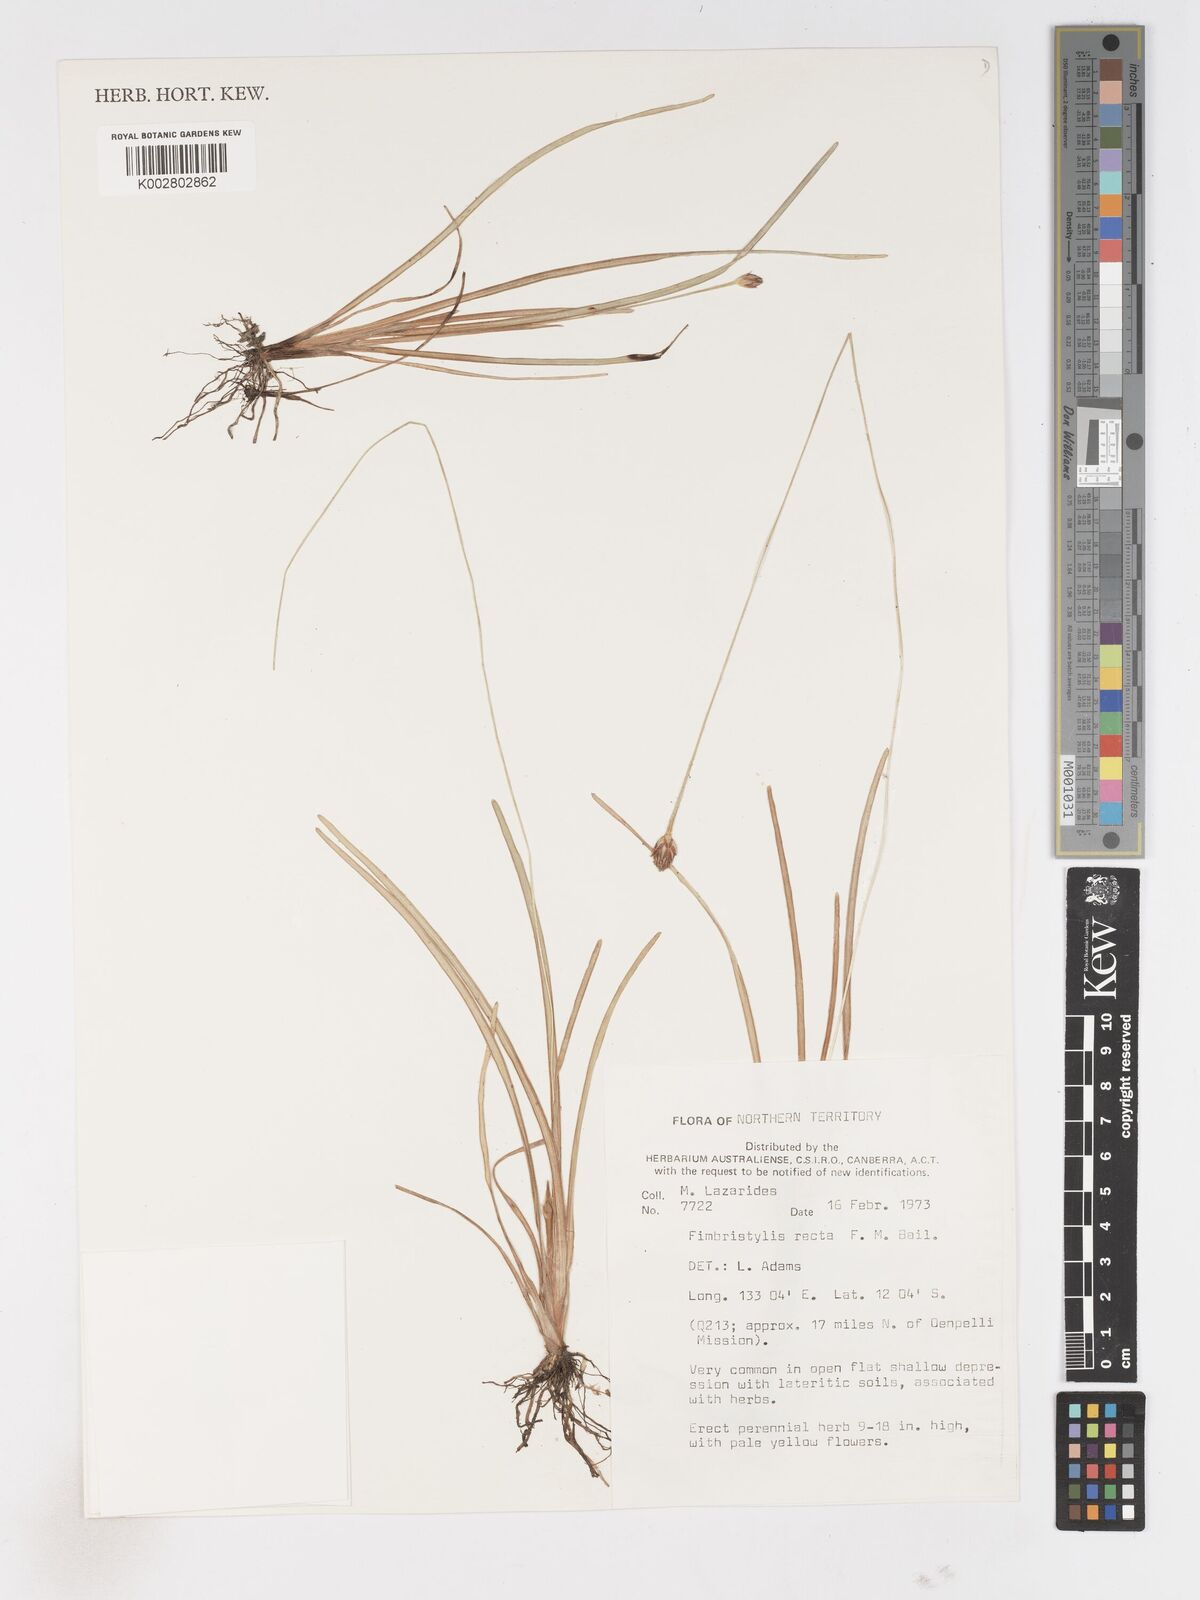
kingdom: Plantae
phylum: Tracheophyta
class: Liliopsida
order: Poales
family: Cyperaceae
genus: Fimbristylis
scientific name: Fimbristylis recta
